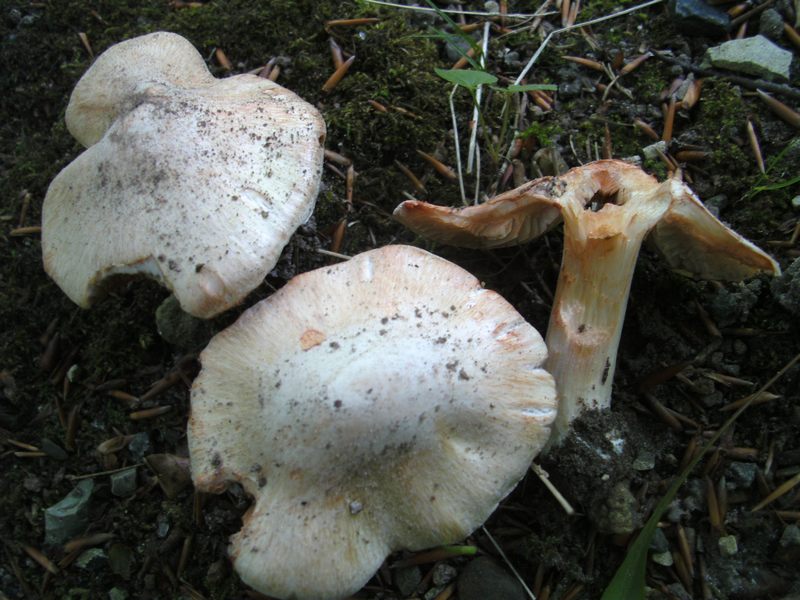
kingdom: Fungi
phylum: Basidiomycota
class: Agaricomycetes
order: Agaricales
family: Inocybaceae
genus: Inosperma
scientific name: Inosperma erubescens
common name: giftig trævlhat
